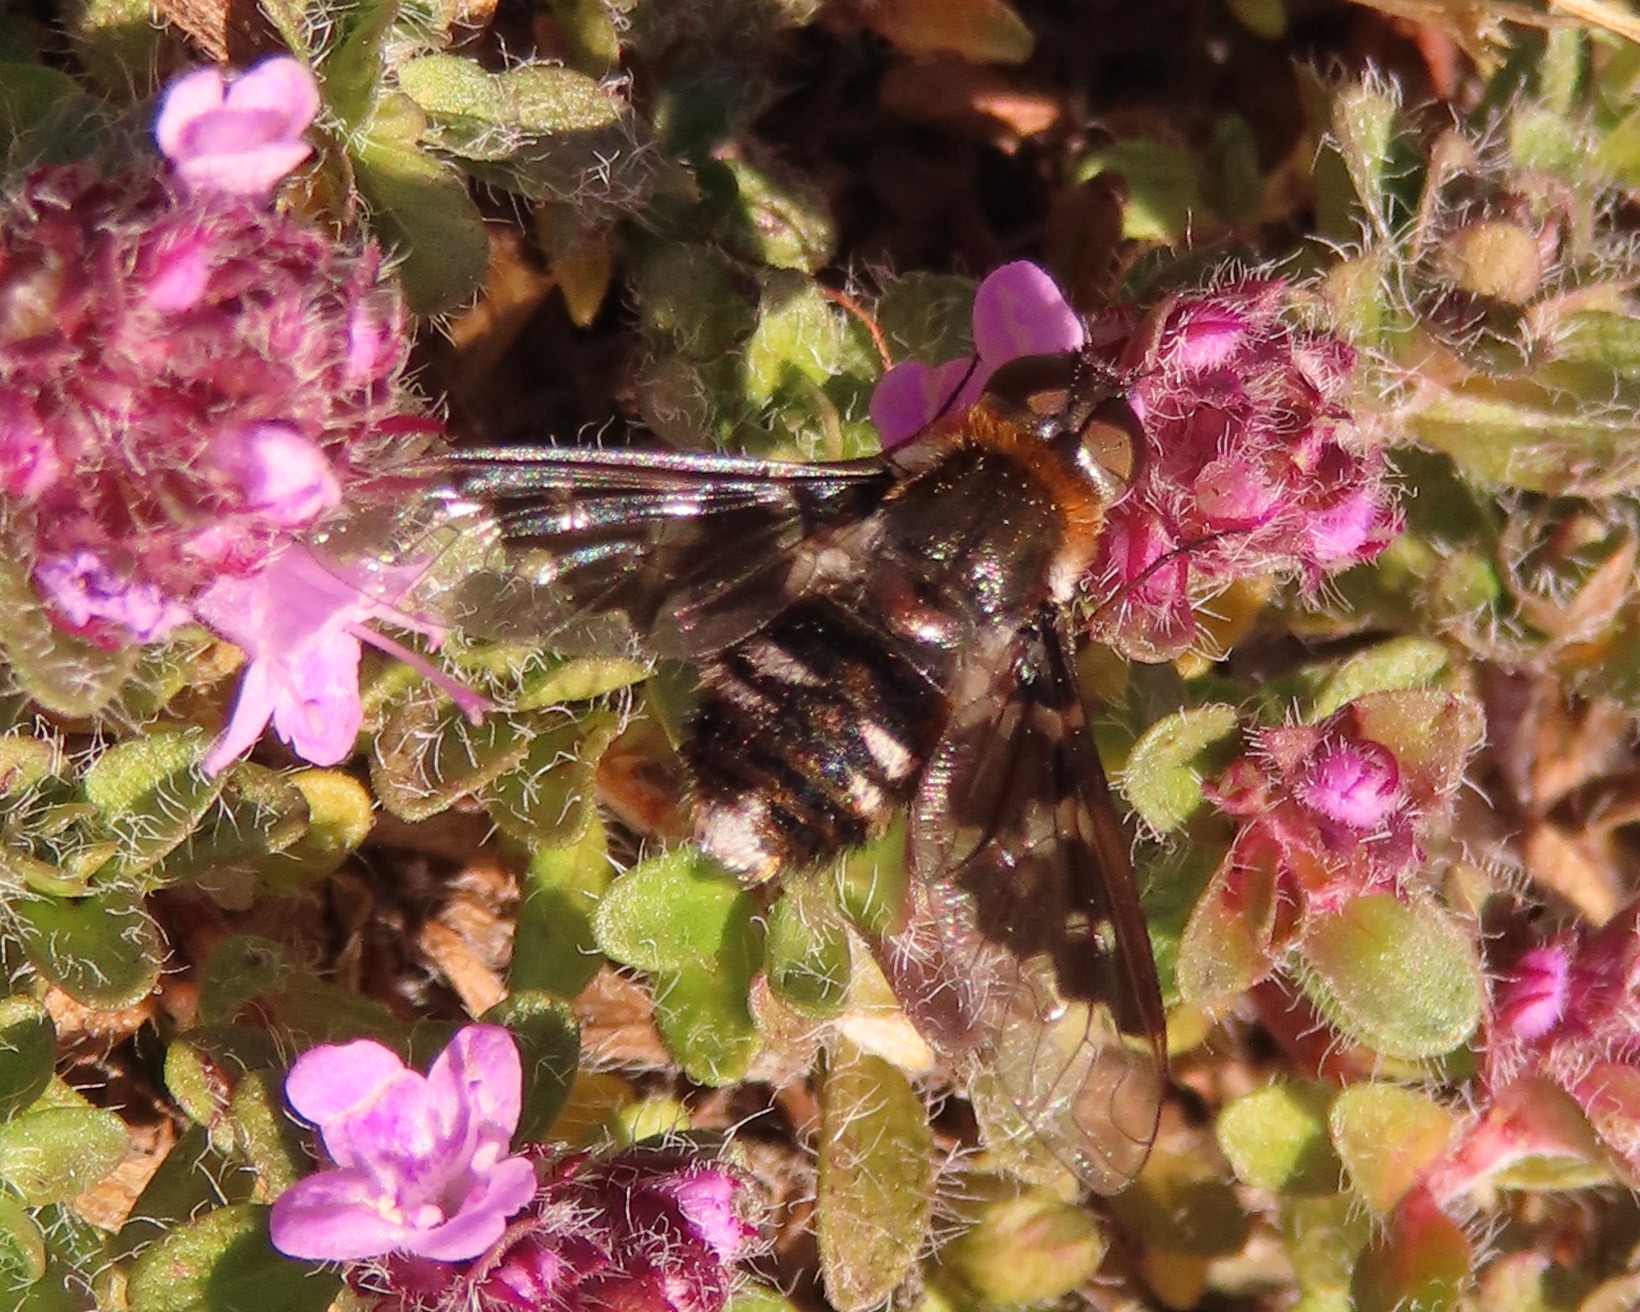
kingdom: Animalia
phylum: Arthropoda
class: Insecta
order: Diptera
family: Bombyliidae
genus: Thyridanthrax
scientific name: Thyridanthrax fenestratus
